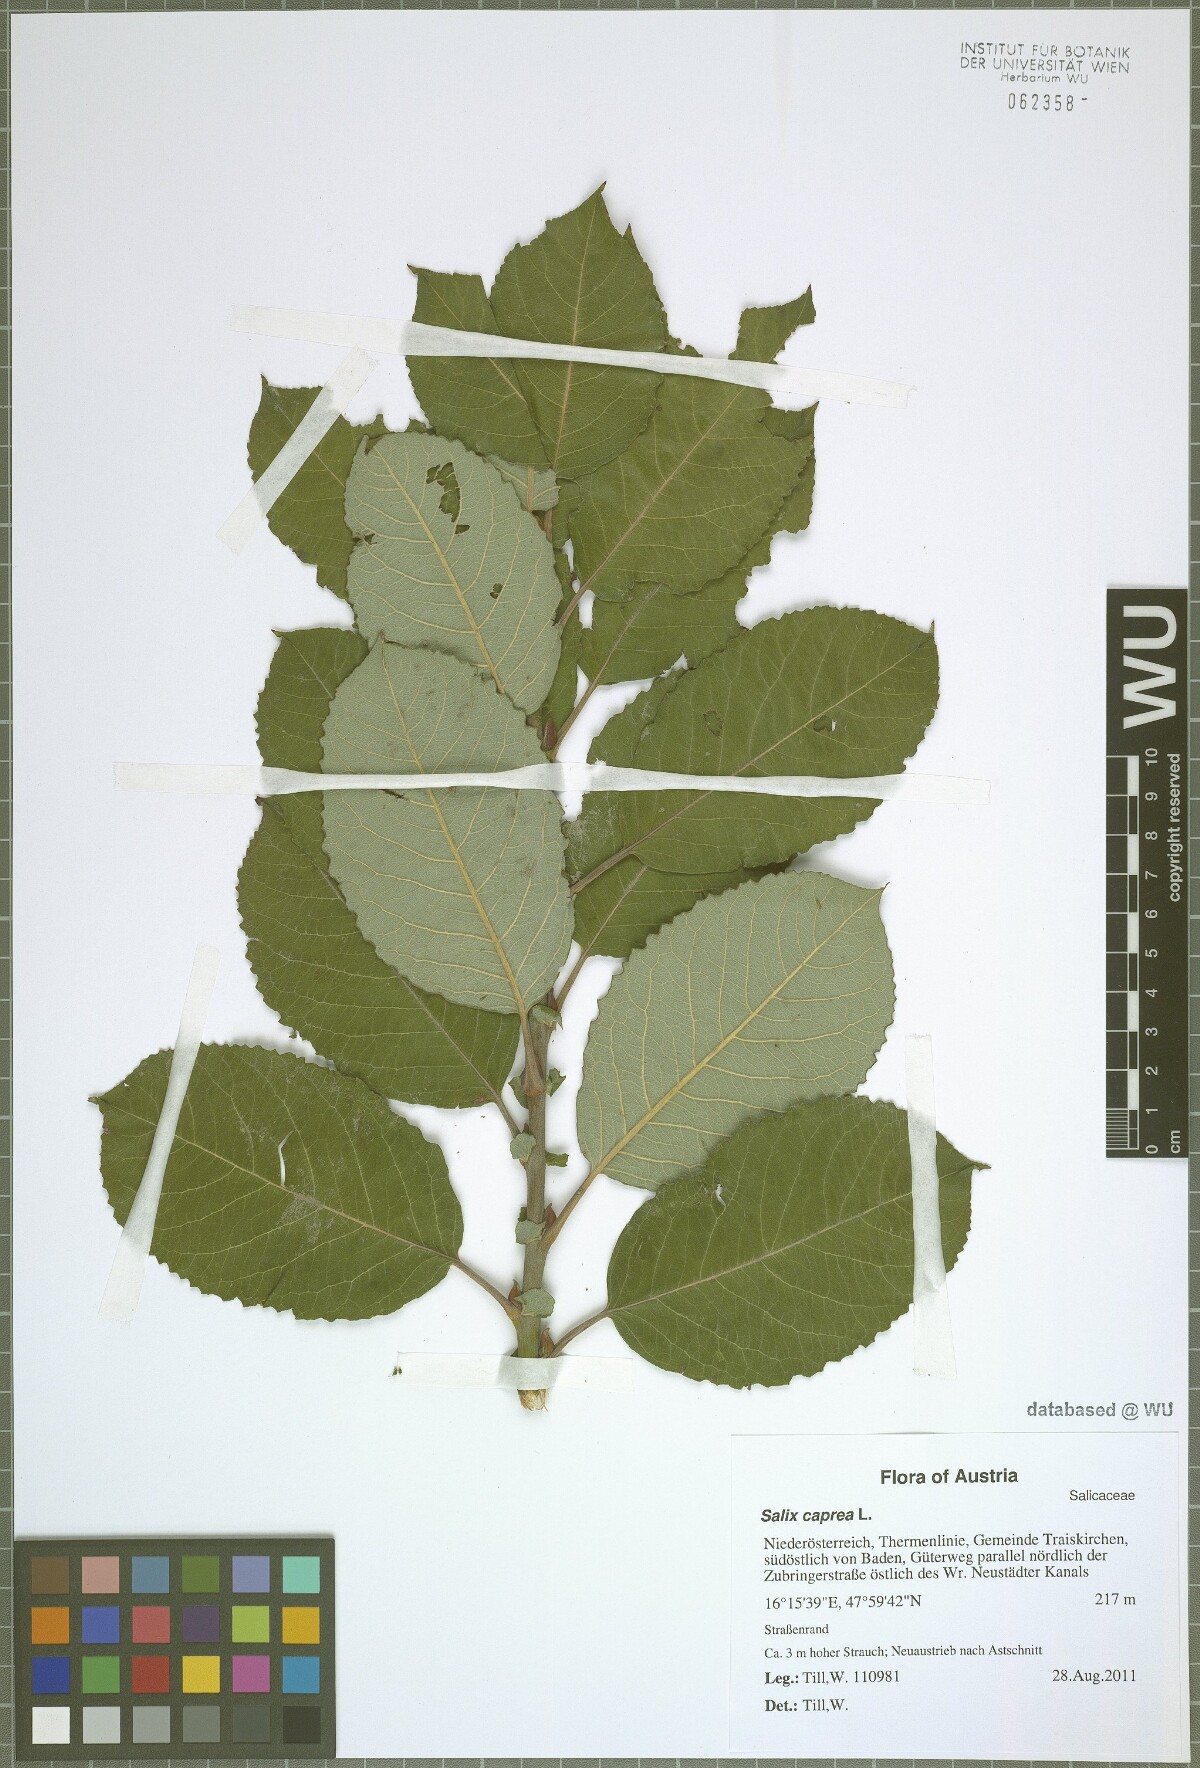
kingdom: Plantae
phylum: Tracheophyta
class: Magnoliopsida
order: Malpighiales
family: Salicaceae
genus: Salix
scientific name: Salix caprea
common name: Goat willow
